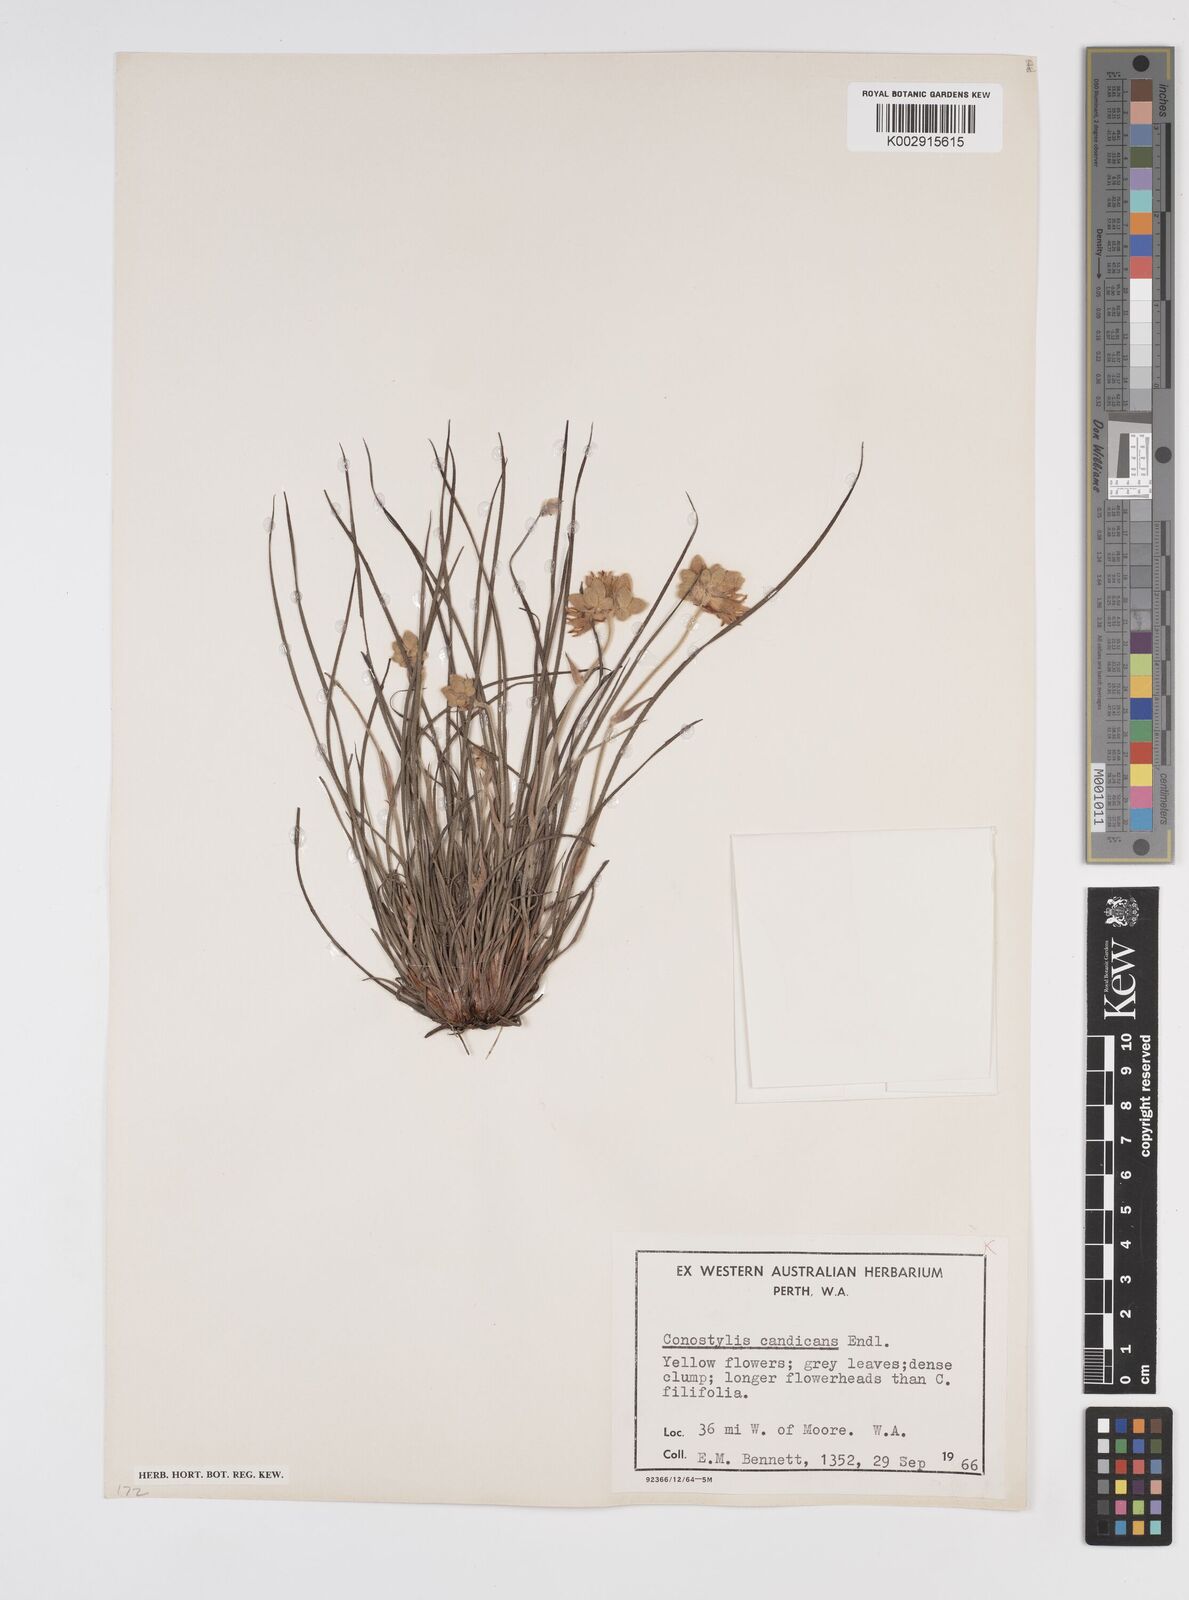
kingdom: Plantae
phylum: Tracheophyta
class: Liliopsida
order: Commelinales
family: Haemodoraceae
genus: Conostylis
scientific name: Conostylis candicans
